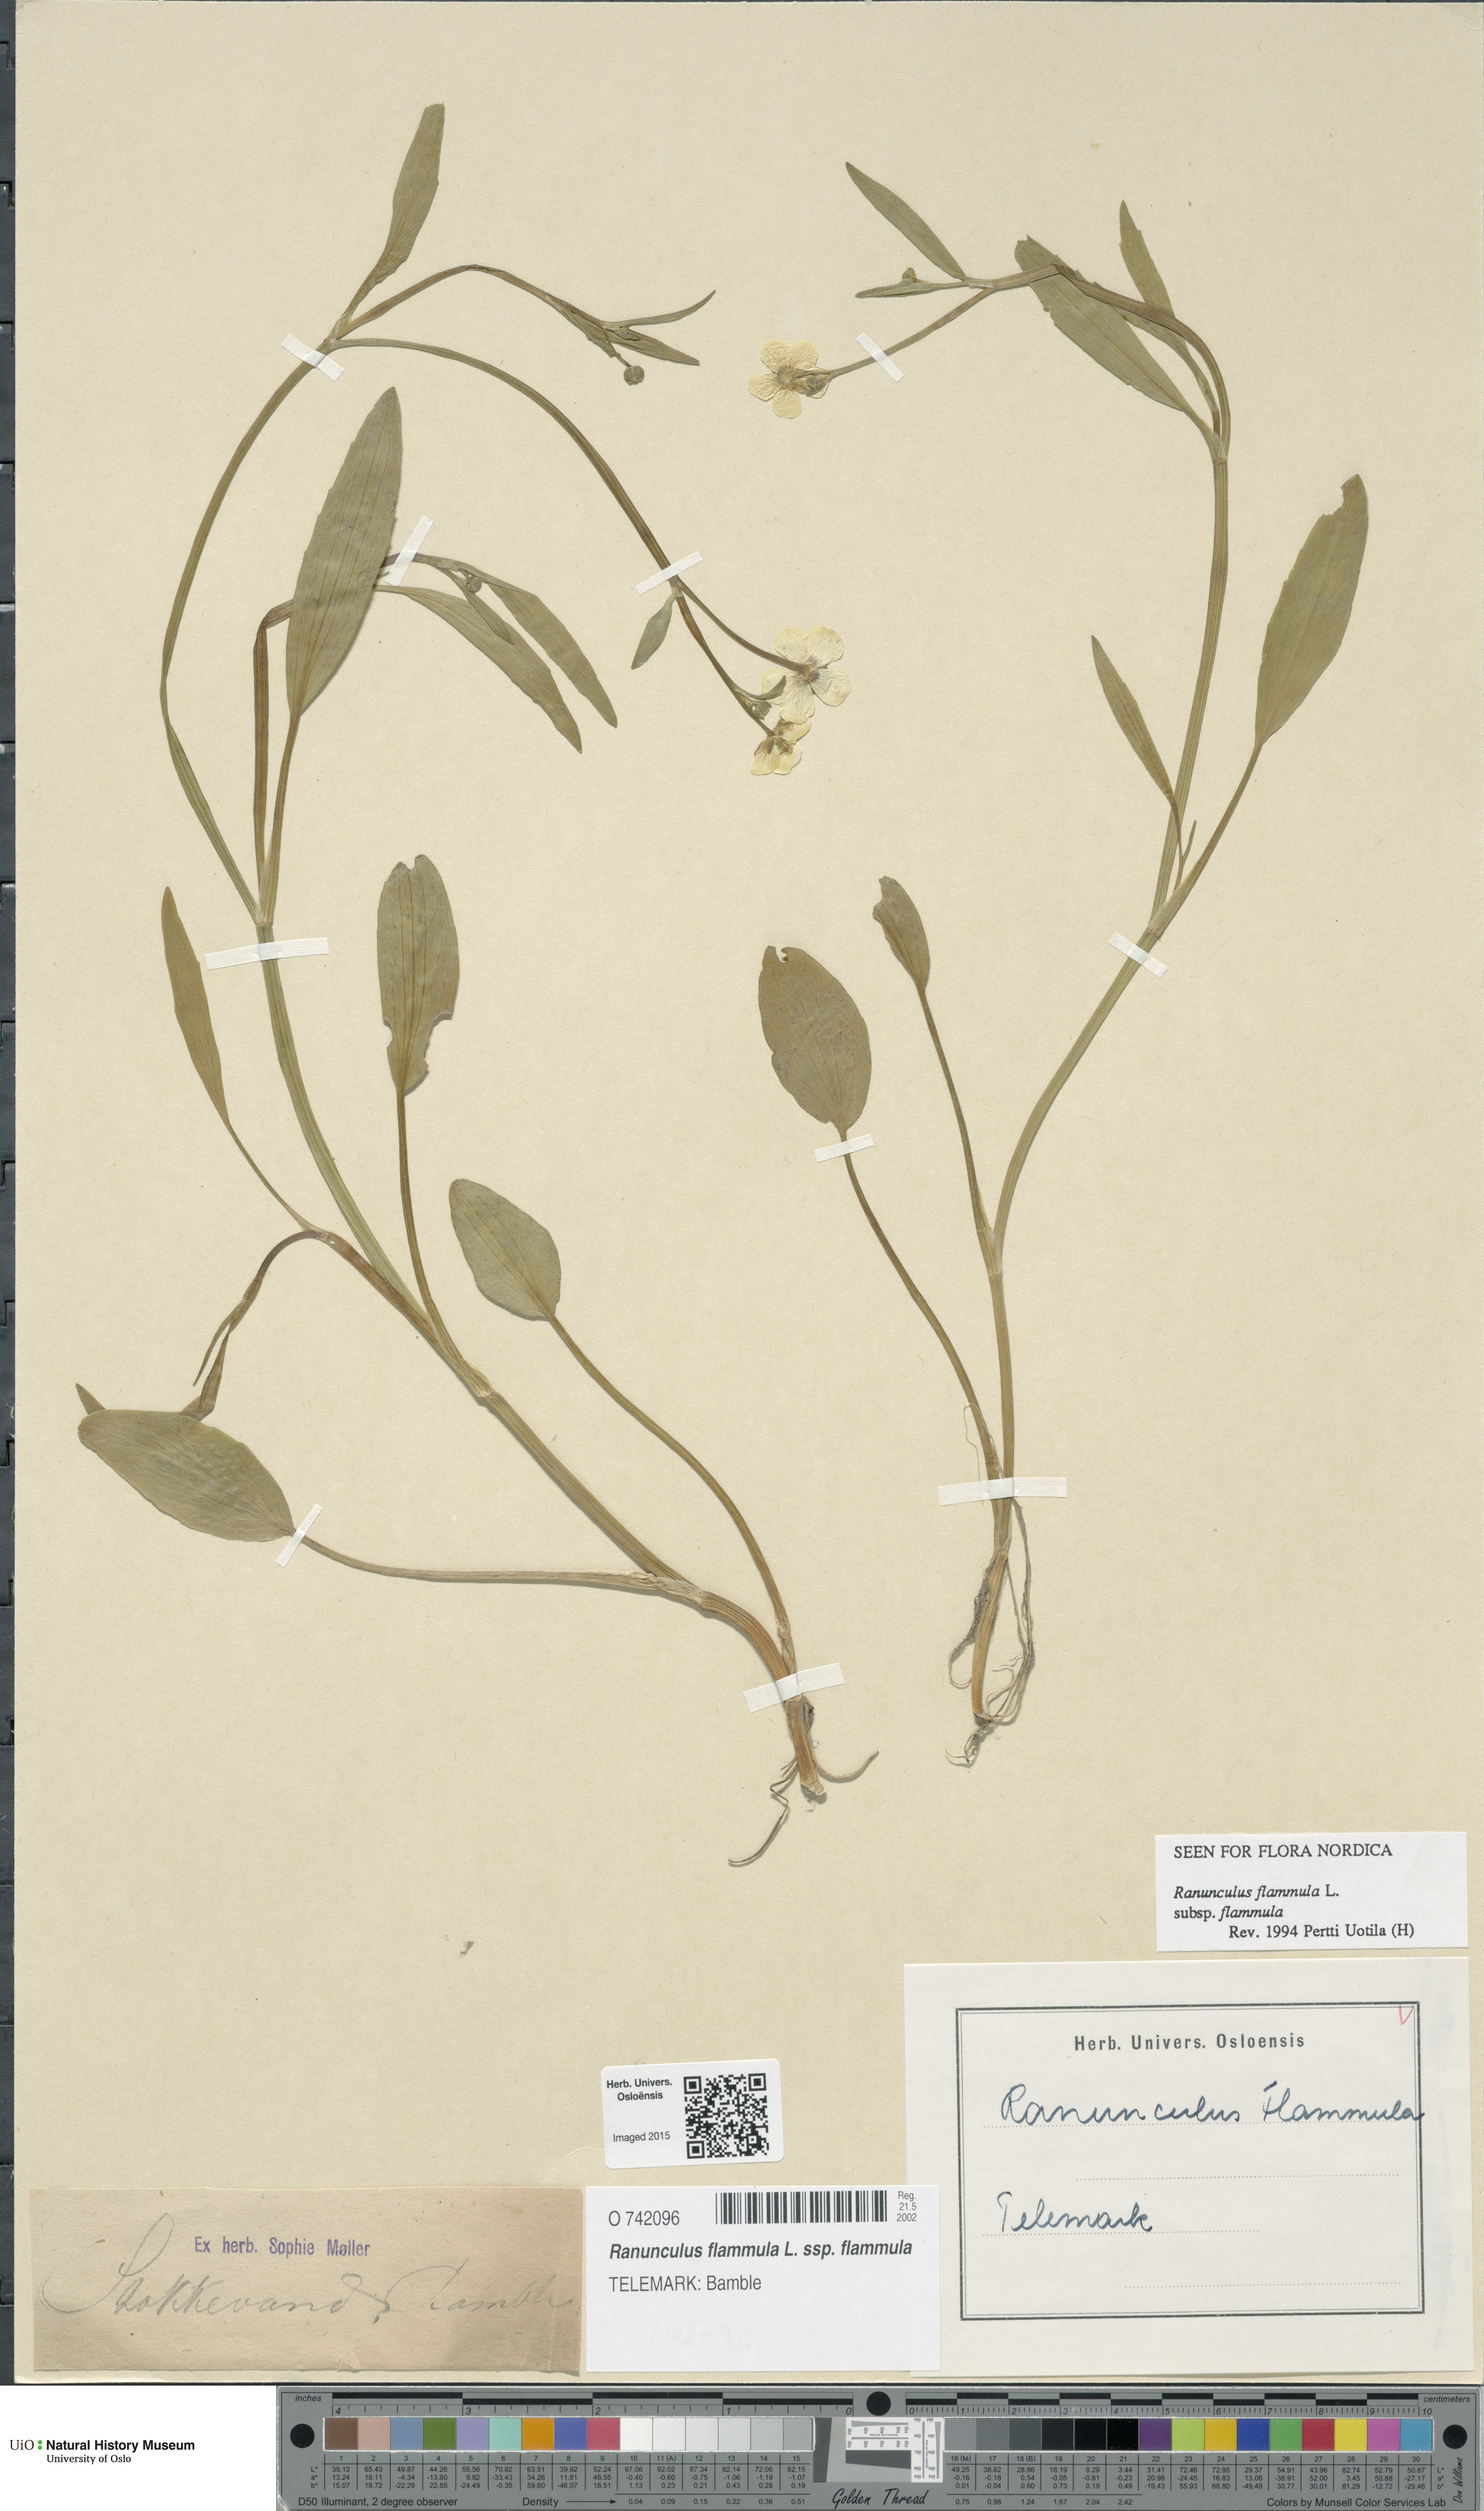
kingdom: Plantae
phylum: Tracheophyta
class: Magnoliopsida
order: Ranunculales
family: Ranunculaceae
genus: Ranunculus
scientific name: Ranunculus flammula
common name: Lesser spearwort
